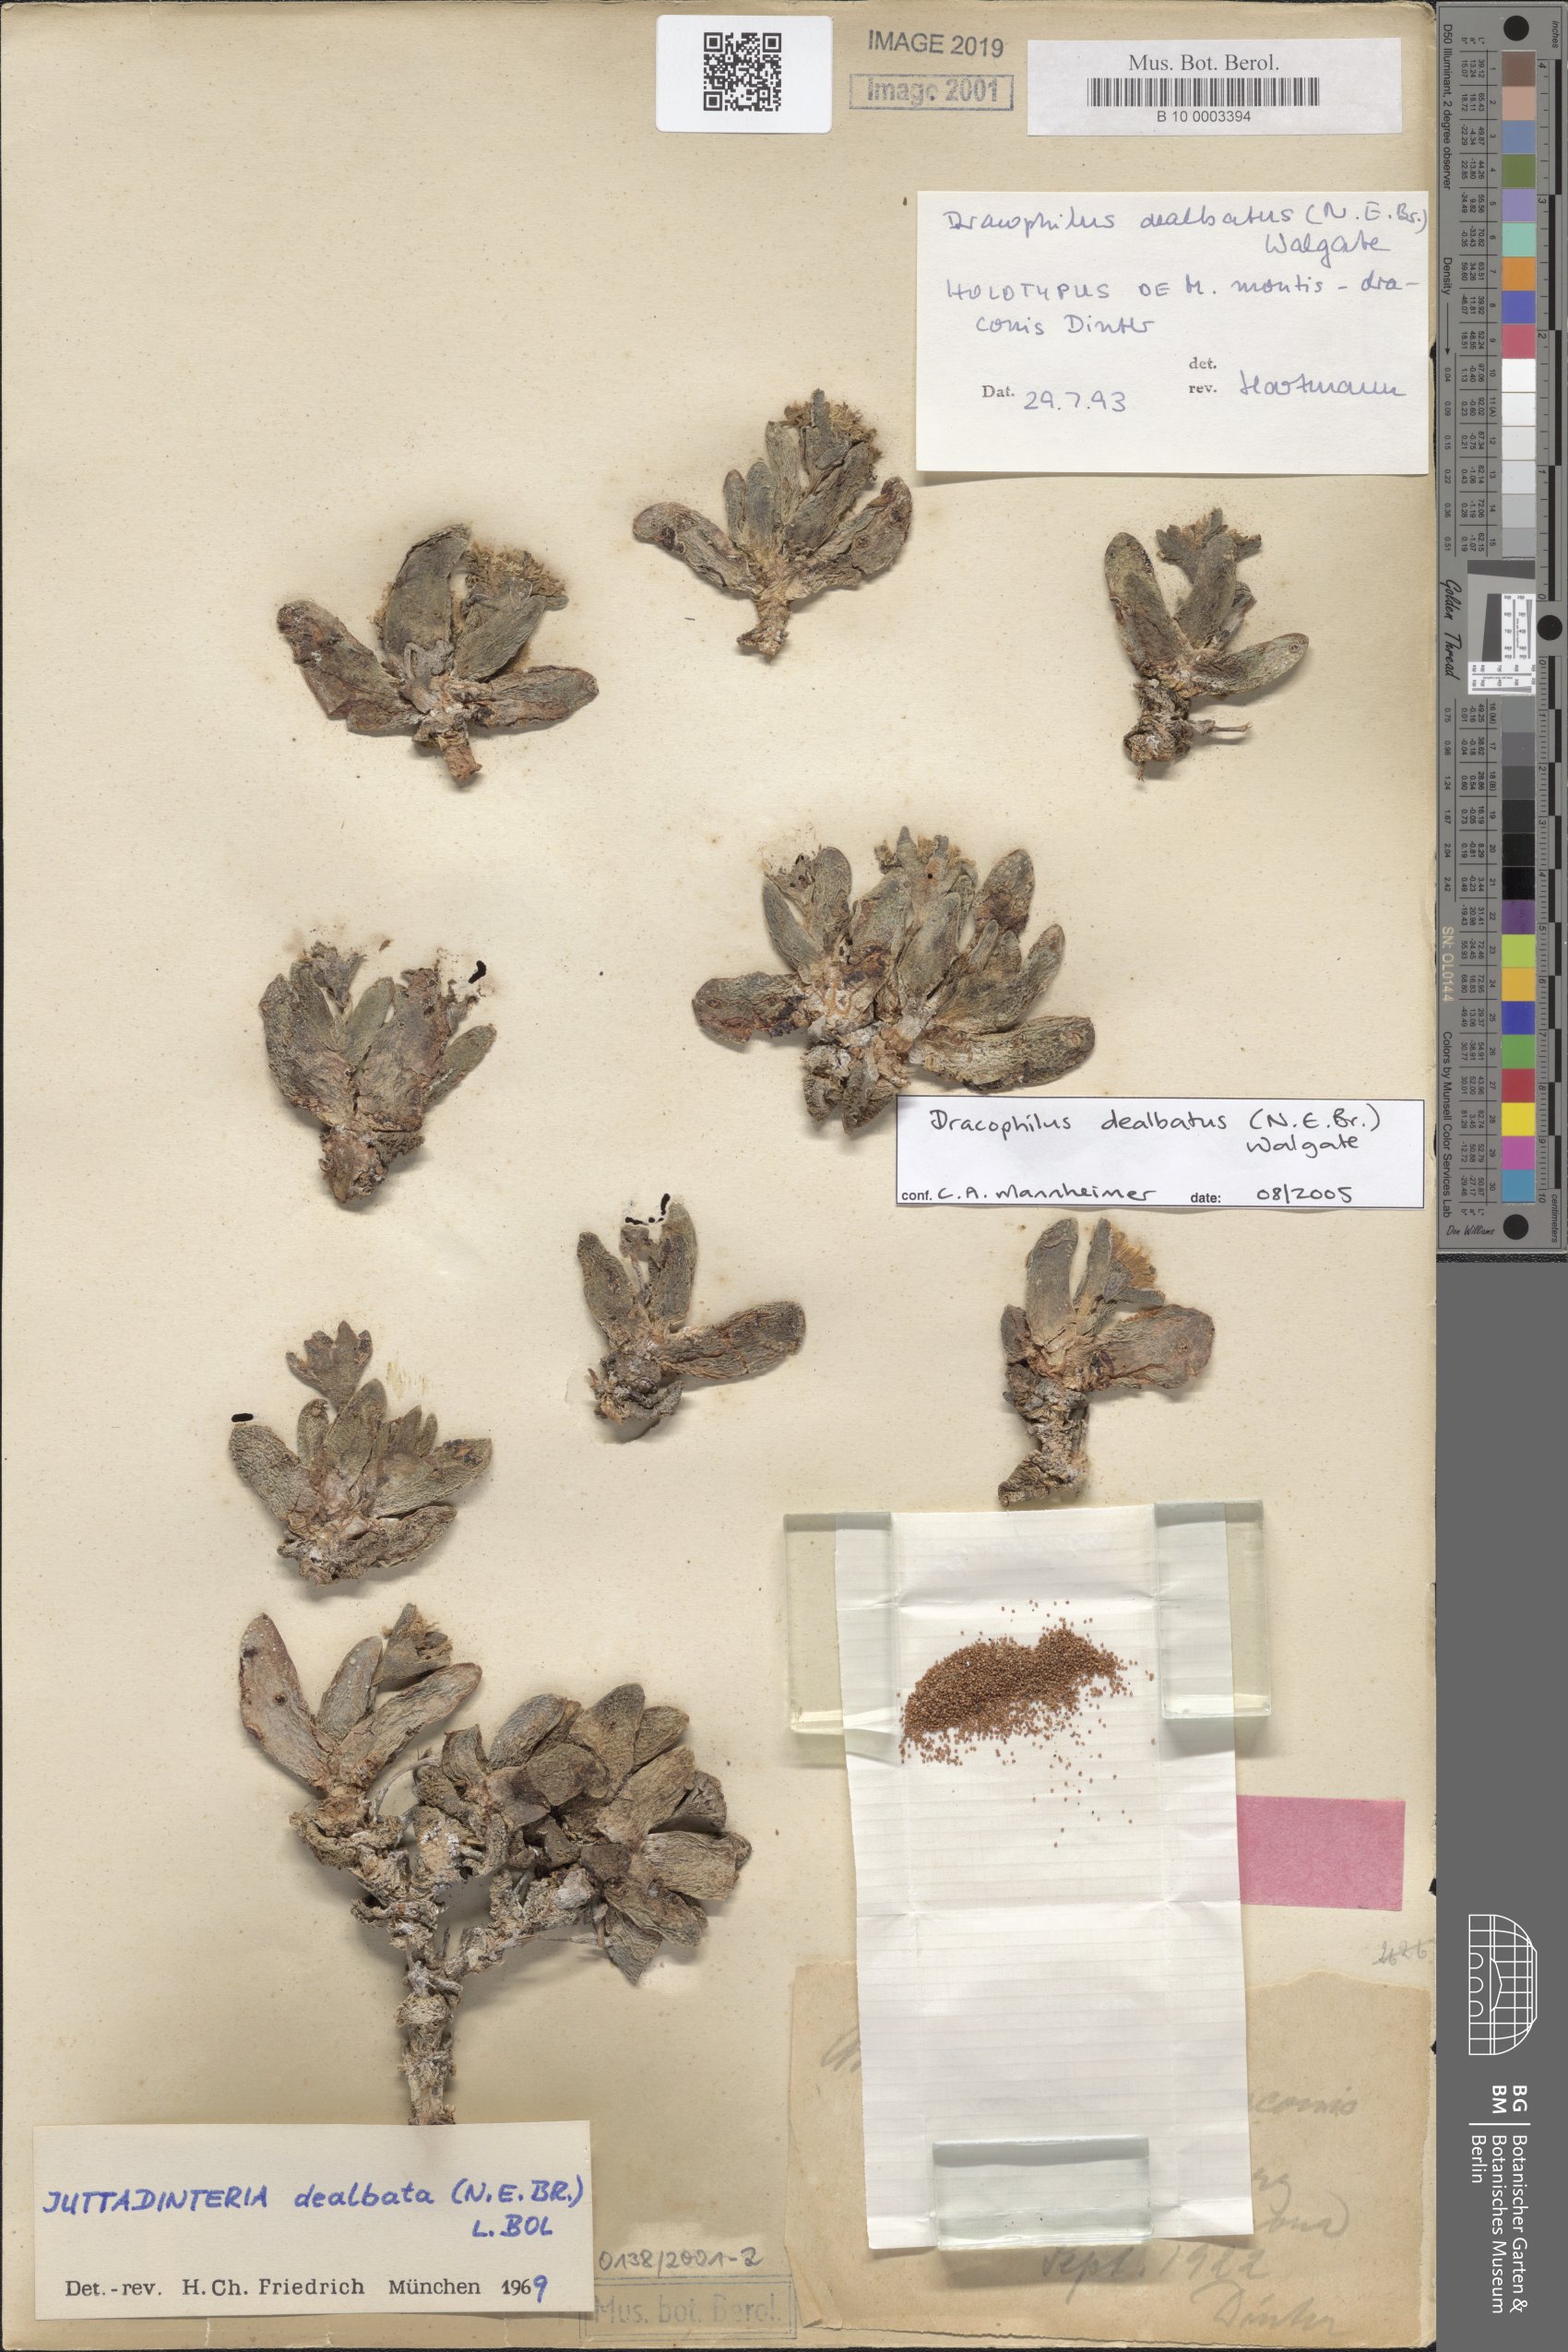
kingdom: Plantae
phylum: Tracheophyta
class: Magnoliopsida
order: Caryophyllales
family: Aizoaceae
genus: Dracophilus
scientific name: Dracophilus dealbatus
